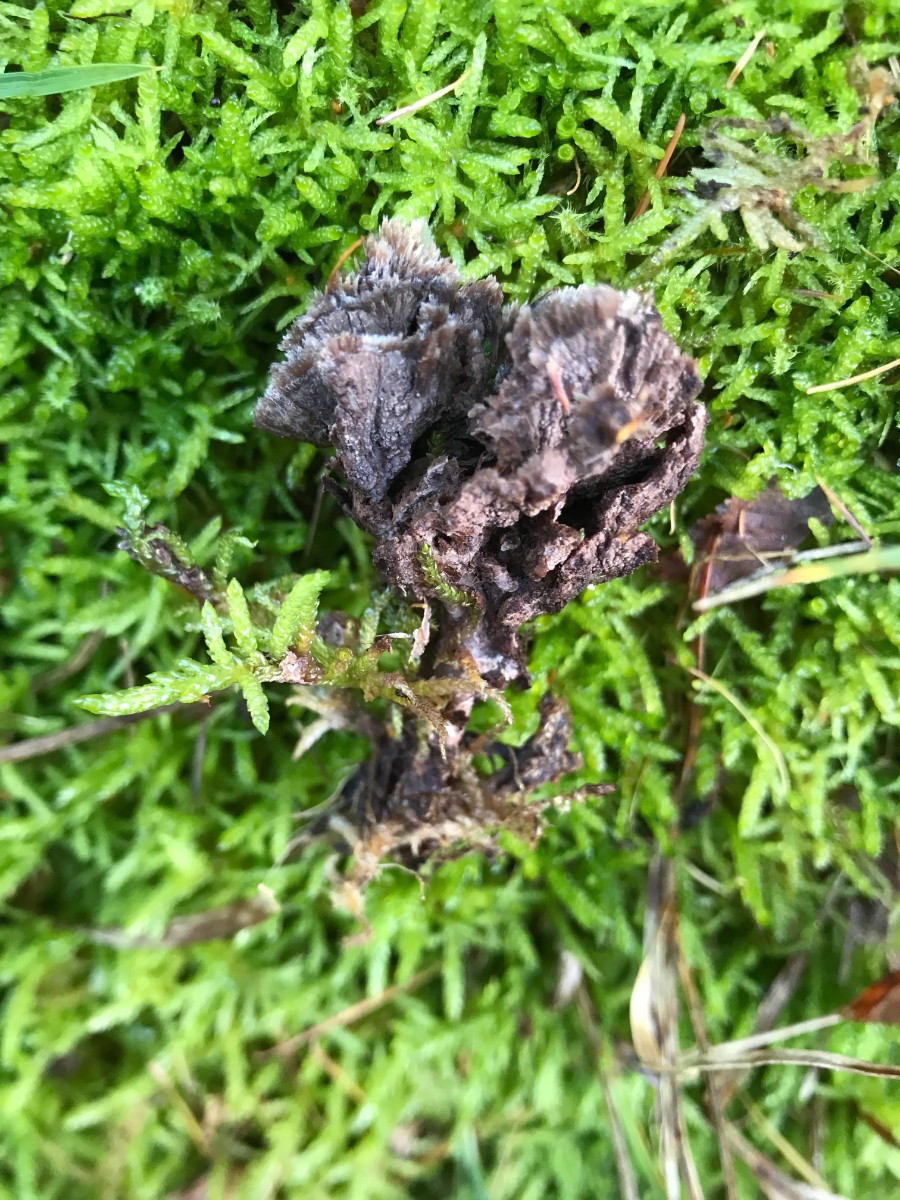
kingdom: Fungi
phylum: Basidiomycota
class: Agaricomycetes
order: Thelephorales
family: Thelephoraceae
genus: Thelephora
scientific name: Thelephora terrestris
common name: fliget frynsesvamp
